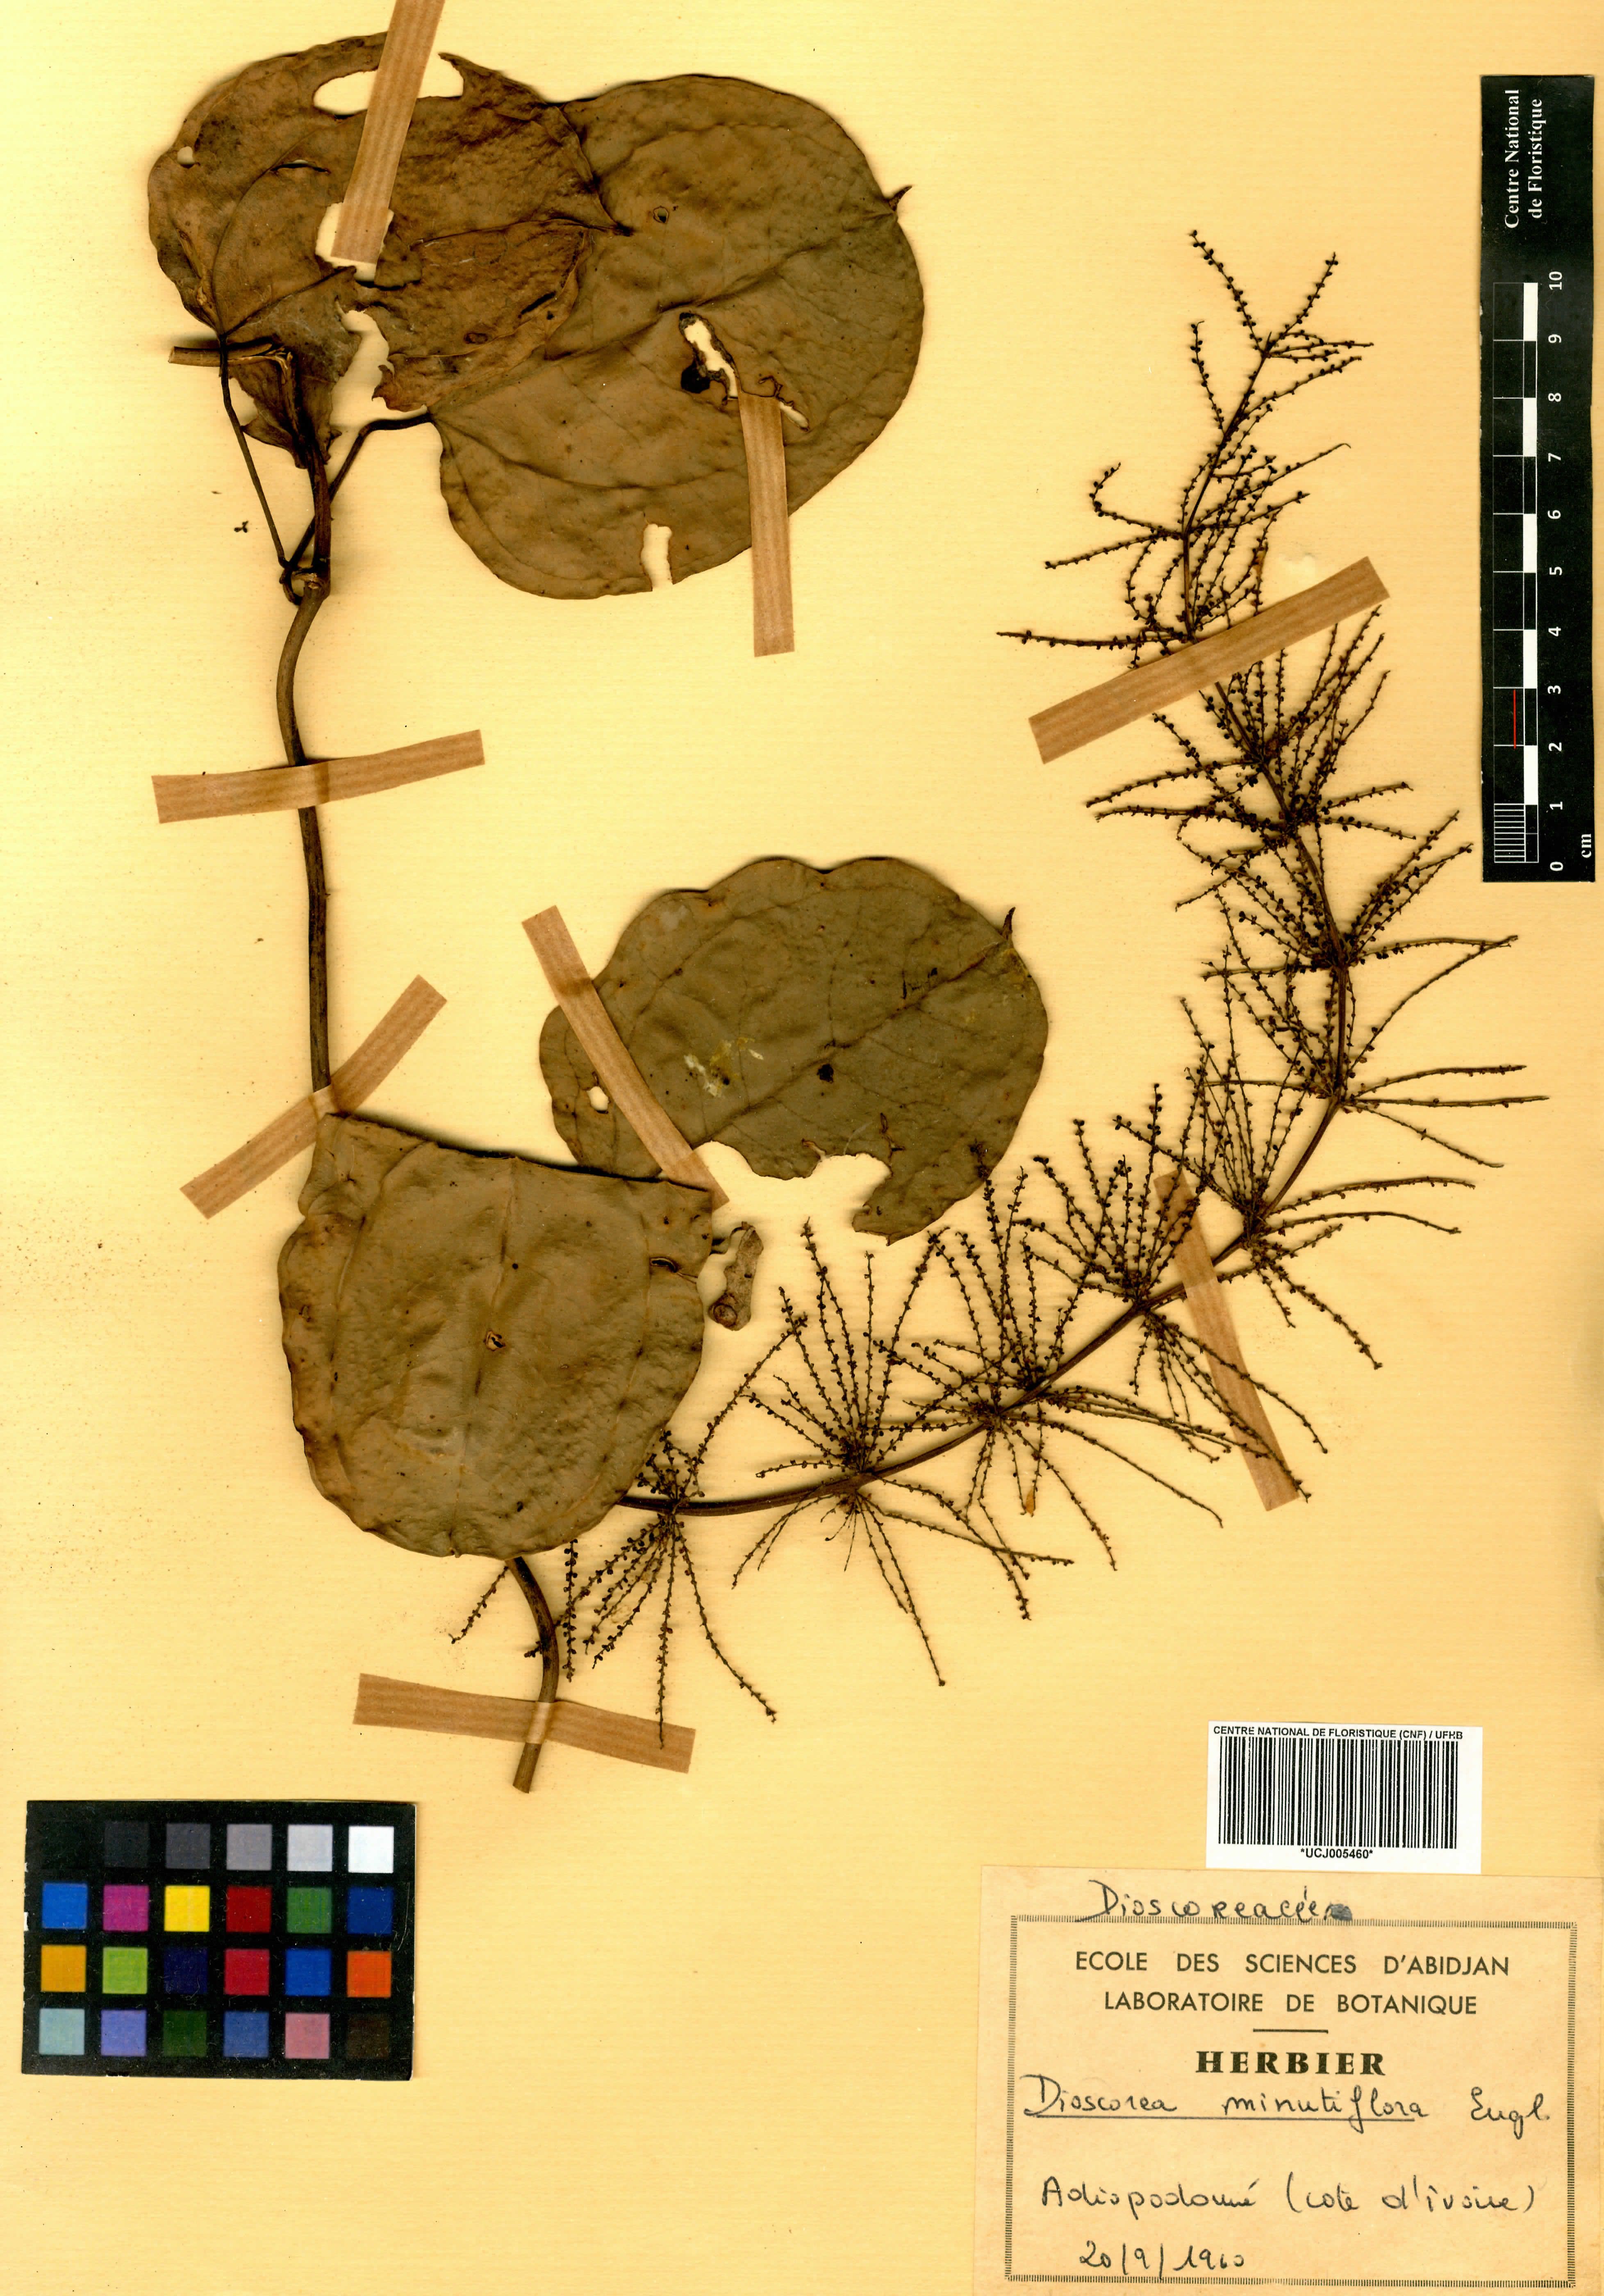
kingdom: Plantae
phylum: Tracheophyta
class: Liliopsida
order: Dioscoreales
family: Dioscoreaceae
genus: Dioscorea
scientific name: Dioscorea minutiflora
